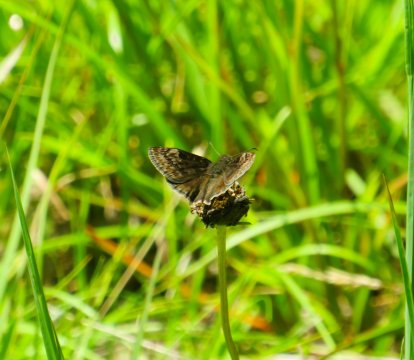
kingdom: Animalia
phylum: Arthropoda
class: Insecta
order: Lepidoptera
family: Hesperiidae
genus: Gesta
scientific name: Gesta
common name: Wild Indigo Duskywing
